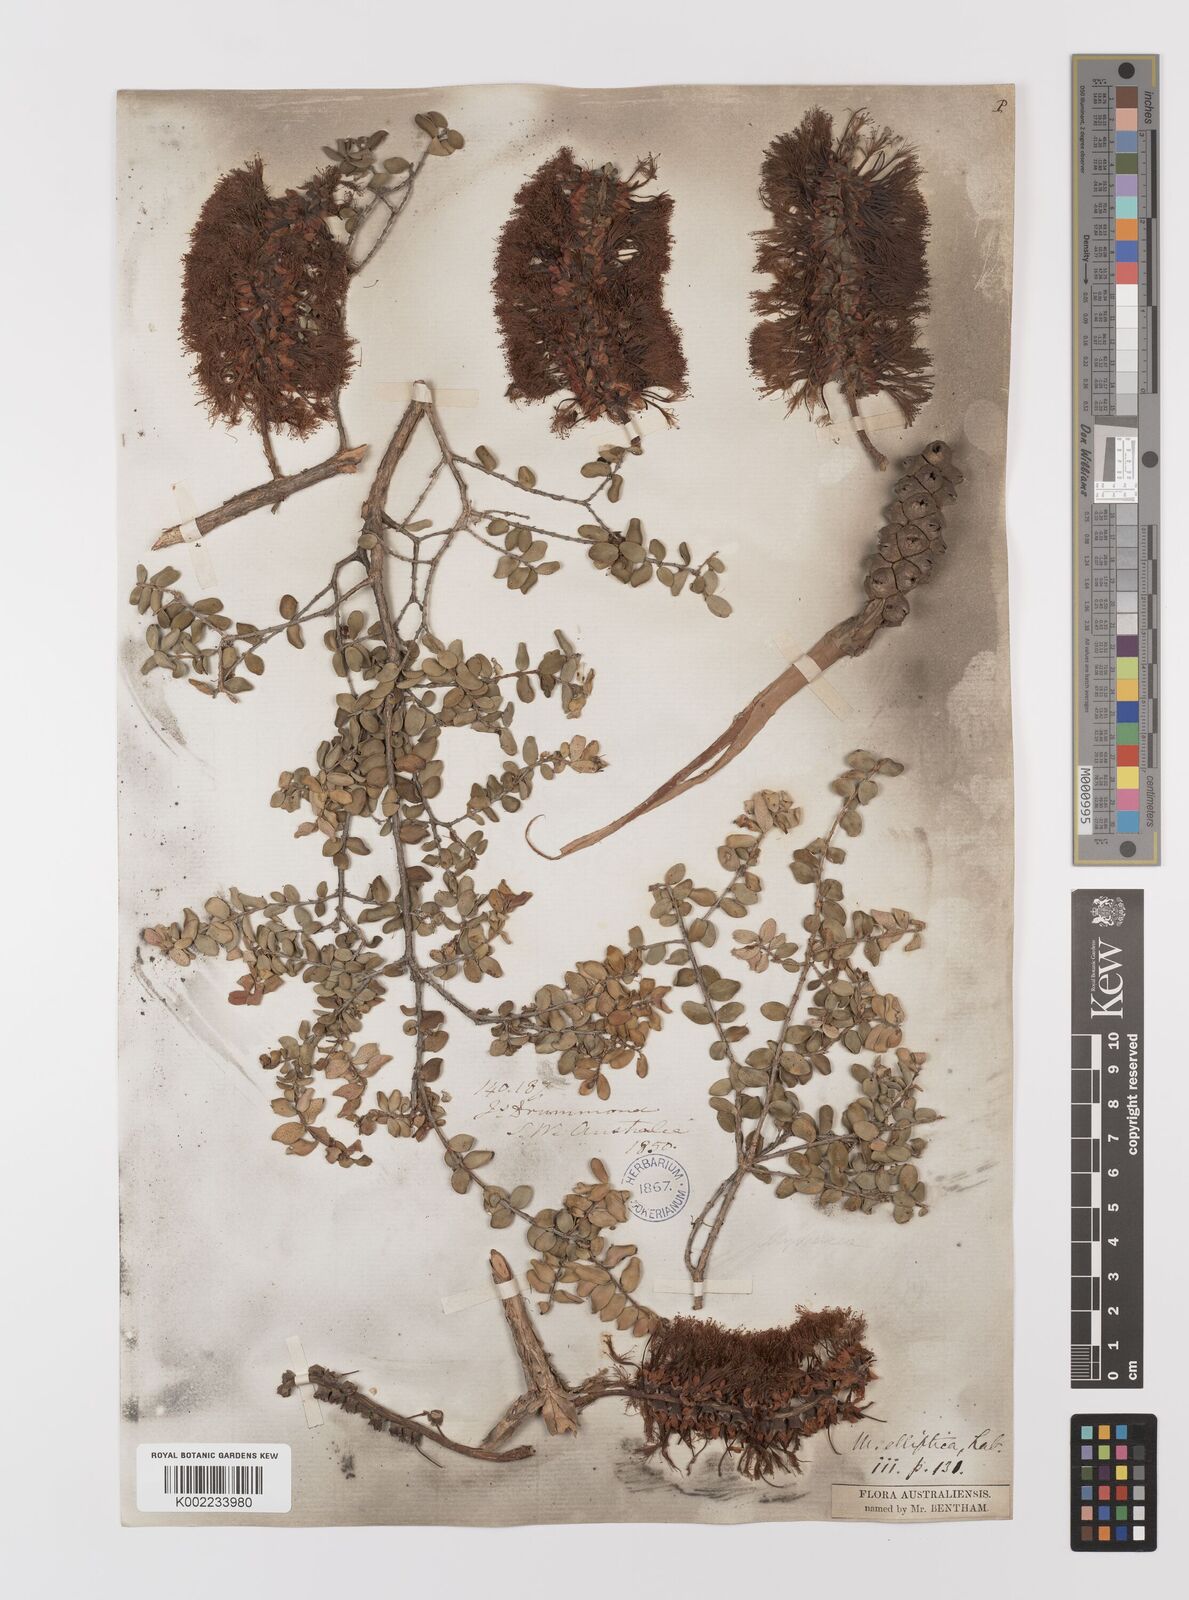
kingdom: Plantae
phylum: Tracheophyta
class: Magnoliopsida
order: Myrtales
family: Myrtaceae
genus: Melaleuca
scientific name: Melaleuca elliptica
